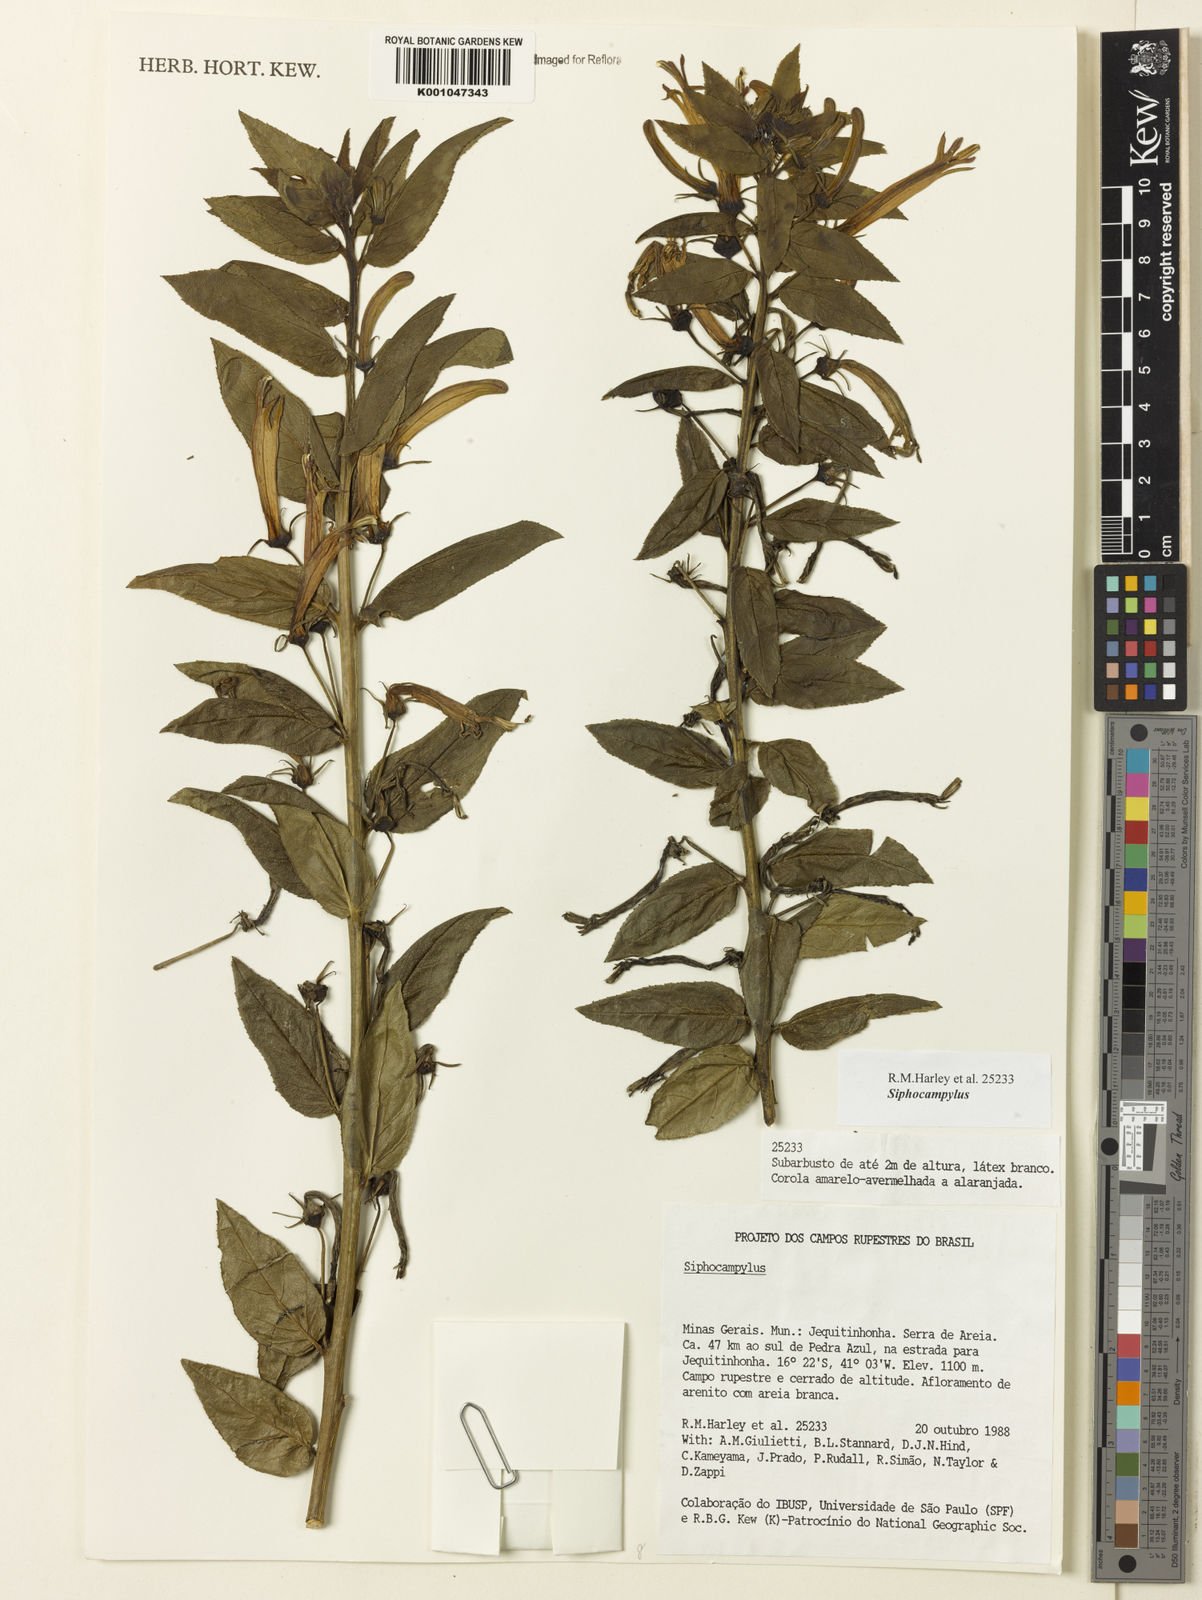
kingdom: Plantae
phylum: Tracheophyta
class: Magnoliopsida
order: Asterales
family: Campanulaceae
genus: Siphocampylus
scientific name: Siphocampylus
